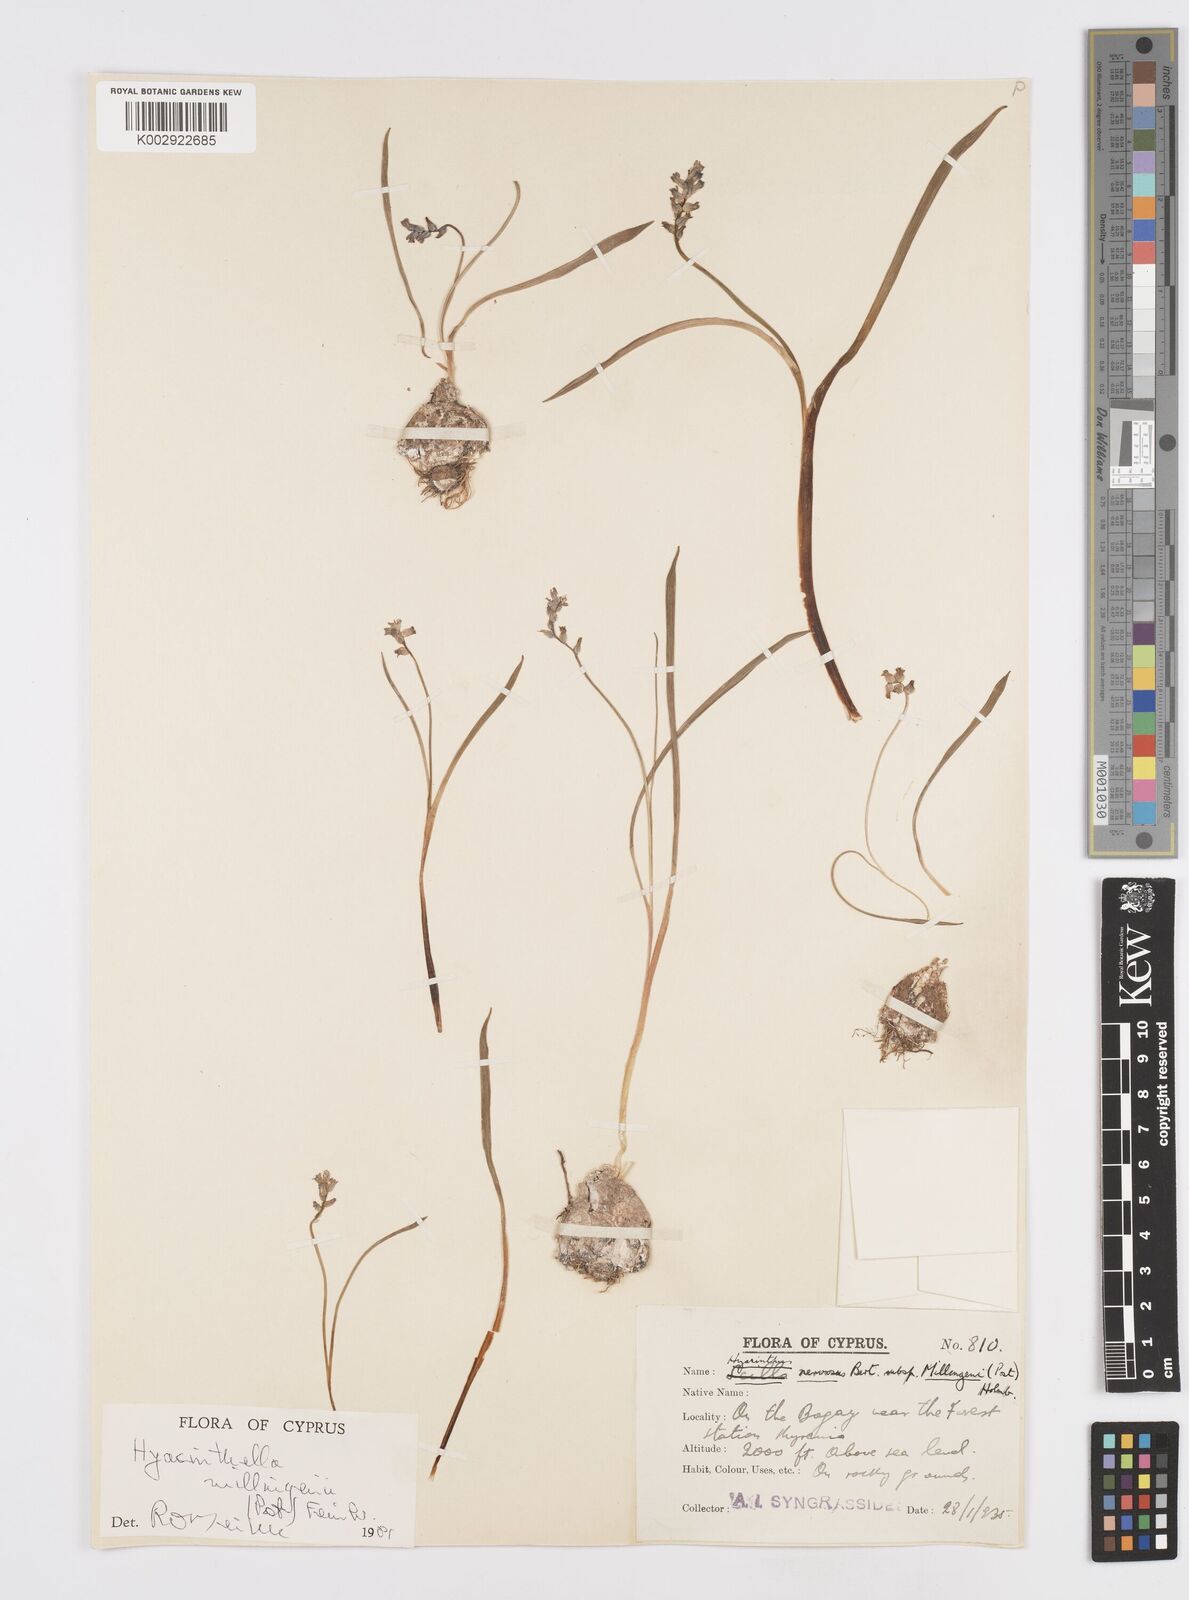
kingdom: Plantae
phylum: Tracheophyta
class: Liliopsida
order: Asparagales
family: Asparagaceae
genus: Hyacinthella
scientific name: Hyacinthella millingenii
